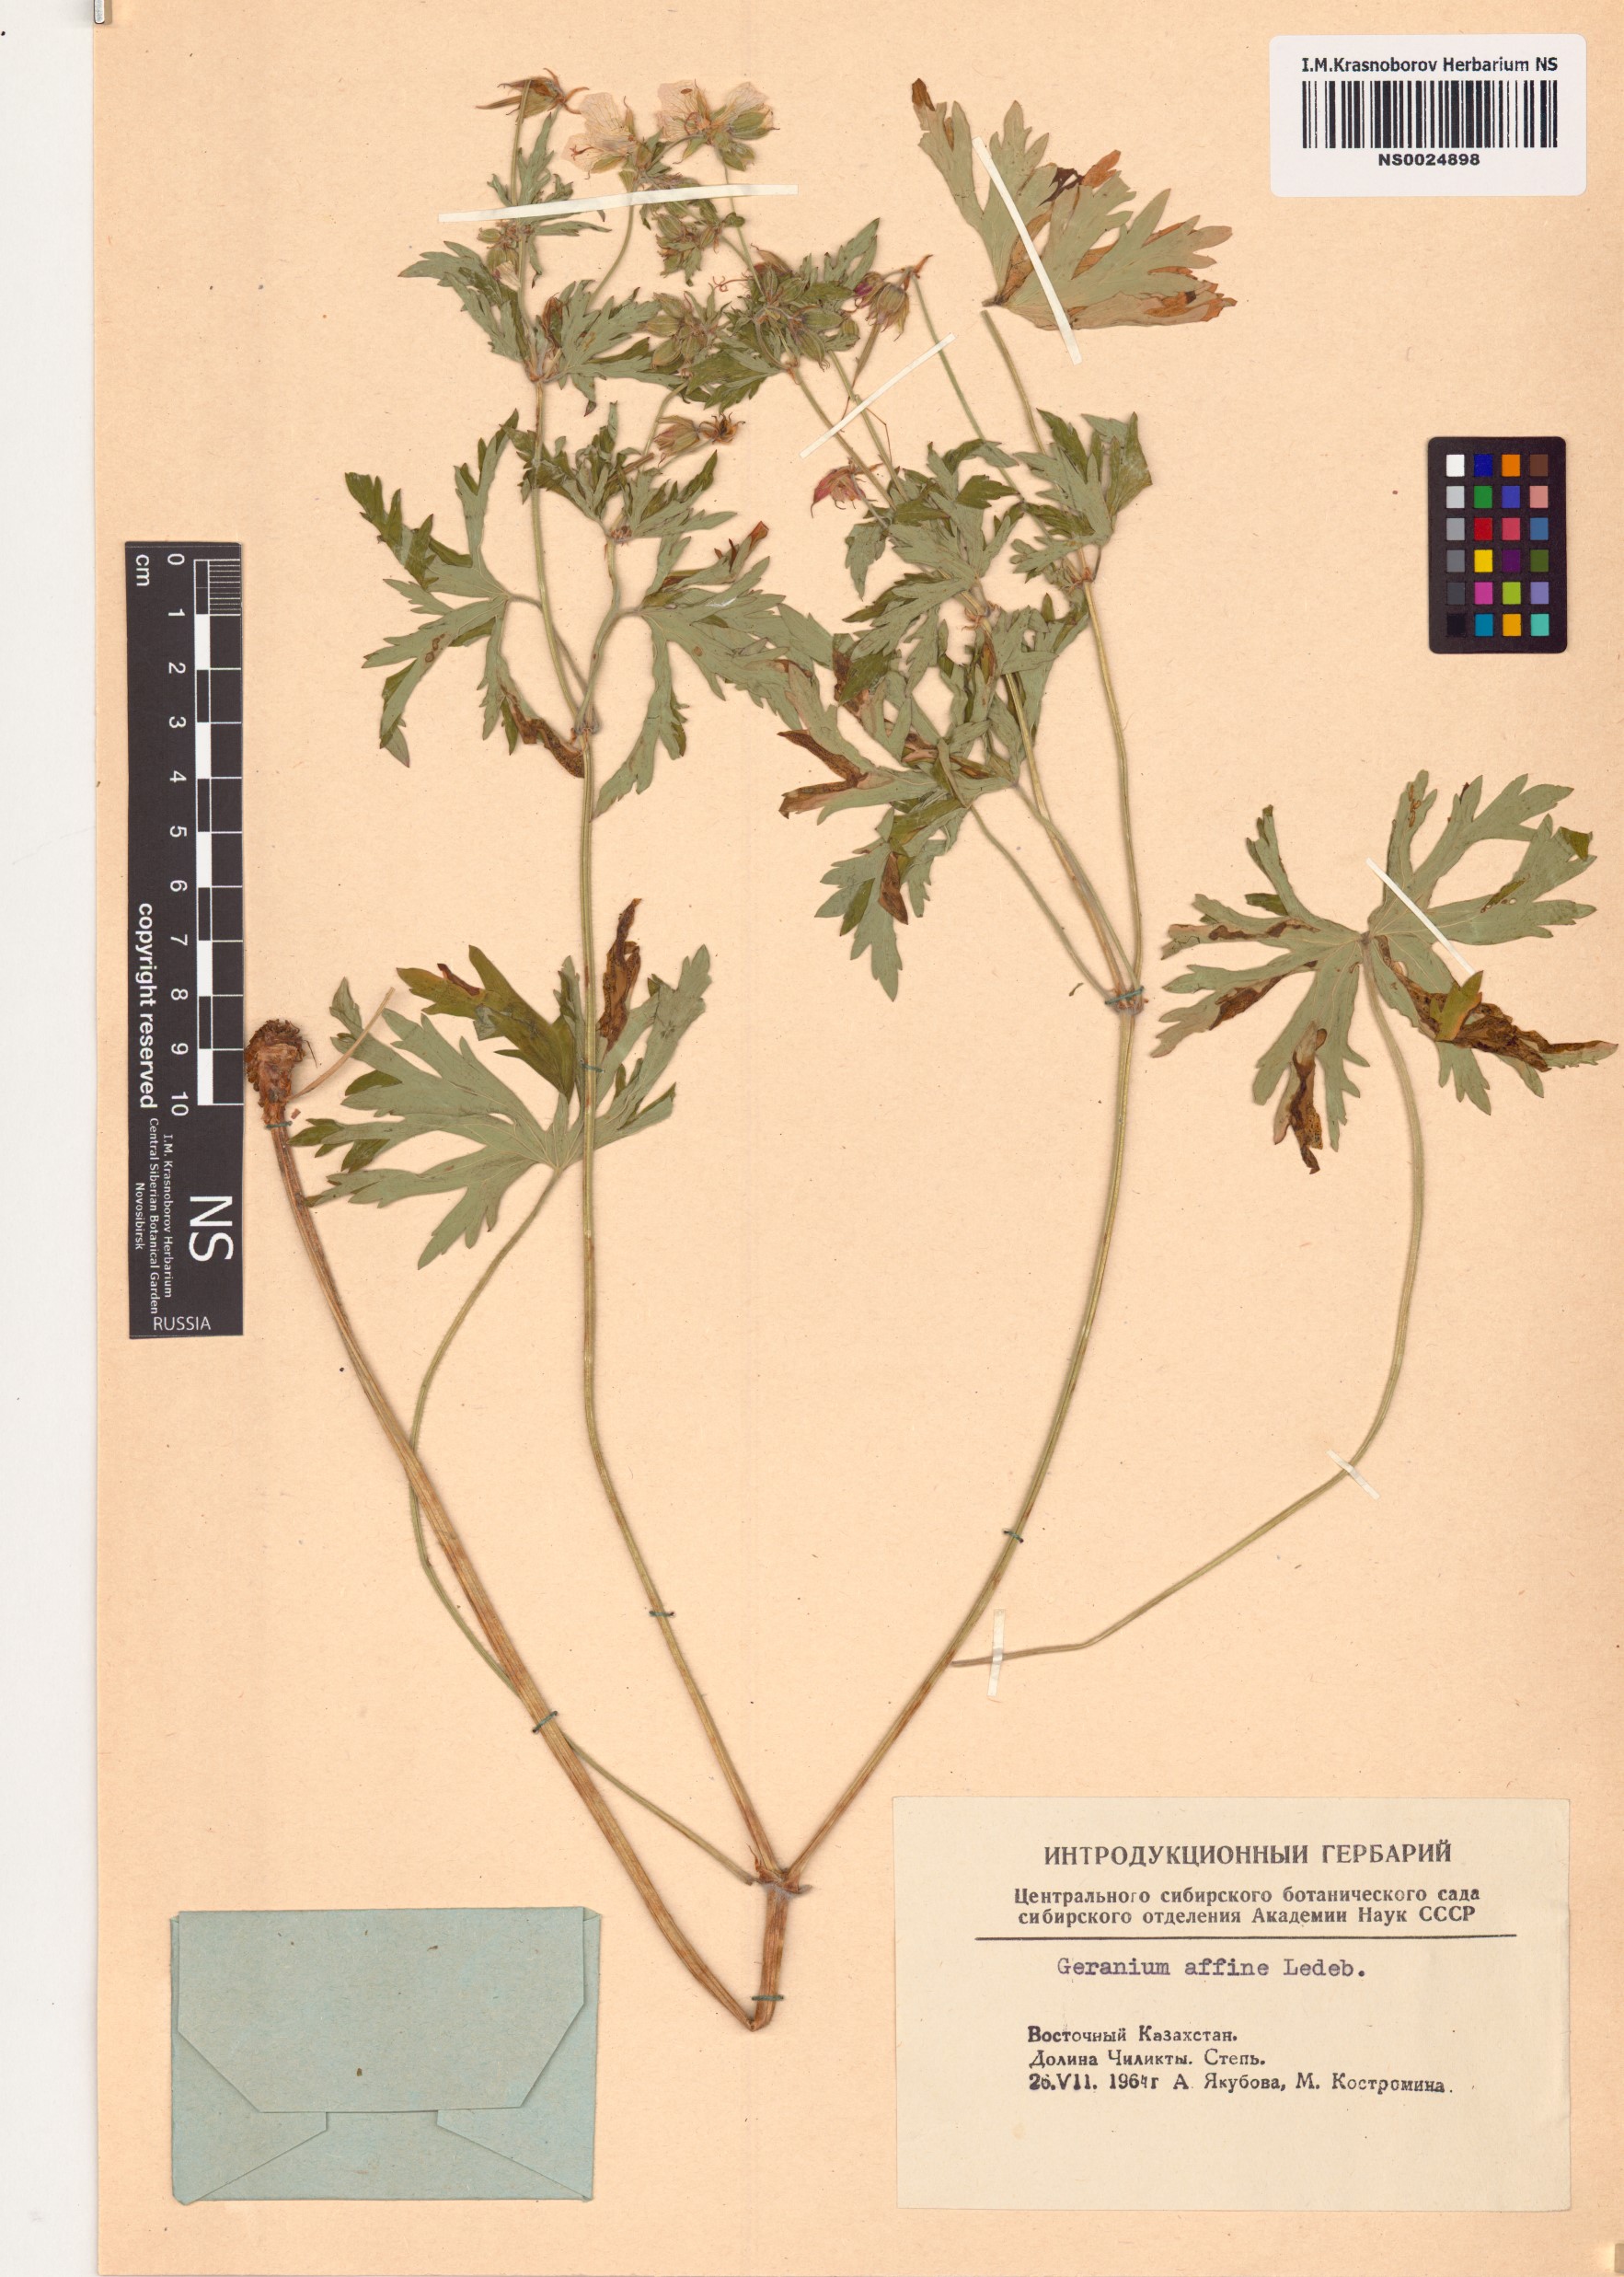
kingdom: Plantae
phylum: Tracheophyta
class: Magnoliopsida
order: Geraniales
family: Geraniaceae
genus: Geranium
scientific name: Geranium pratense
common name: Meadow crane's-bill
